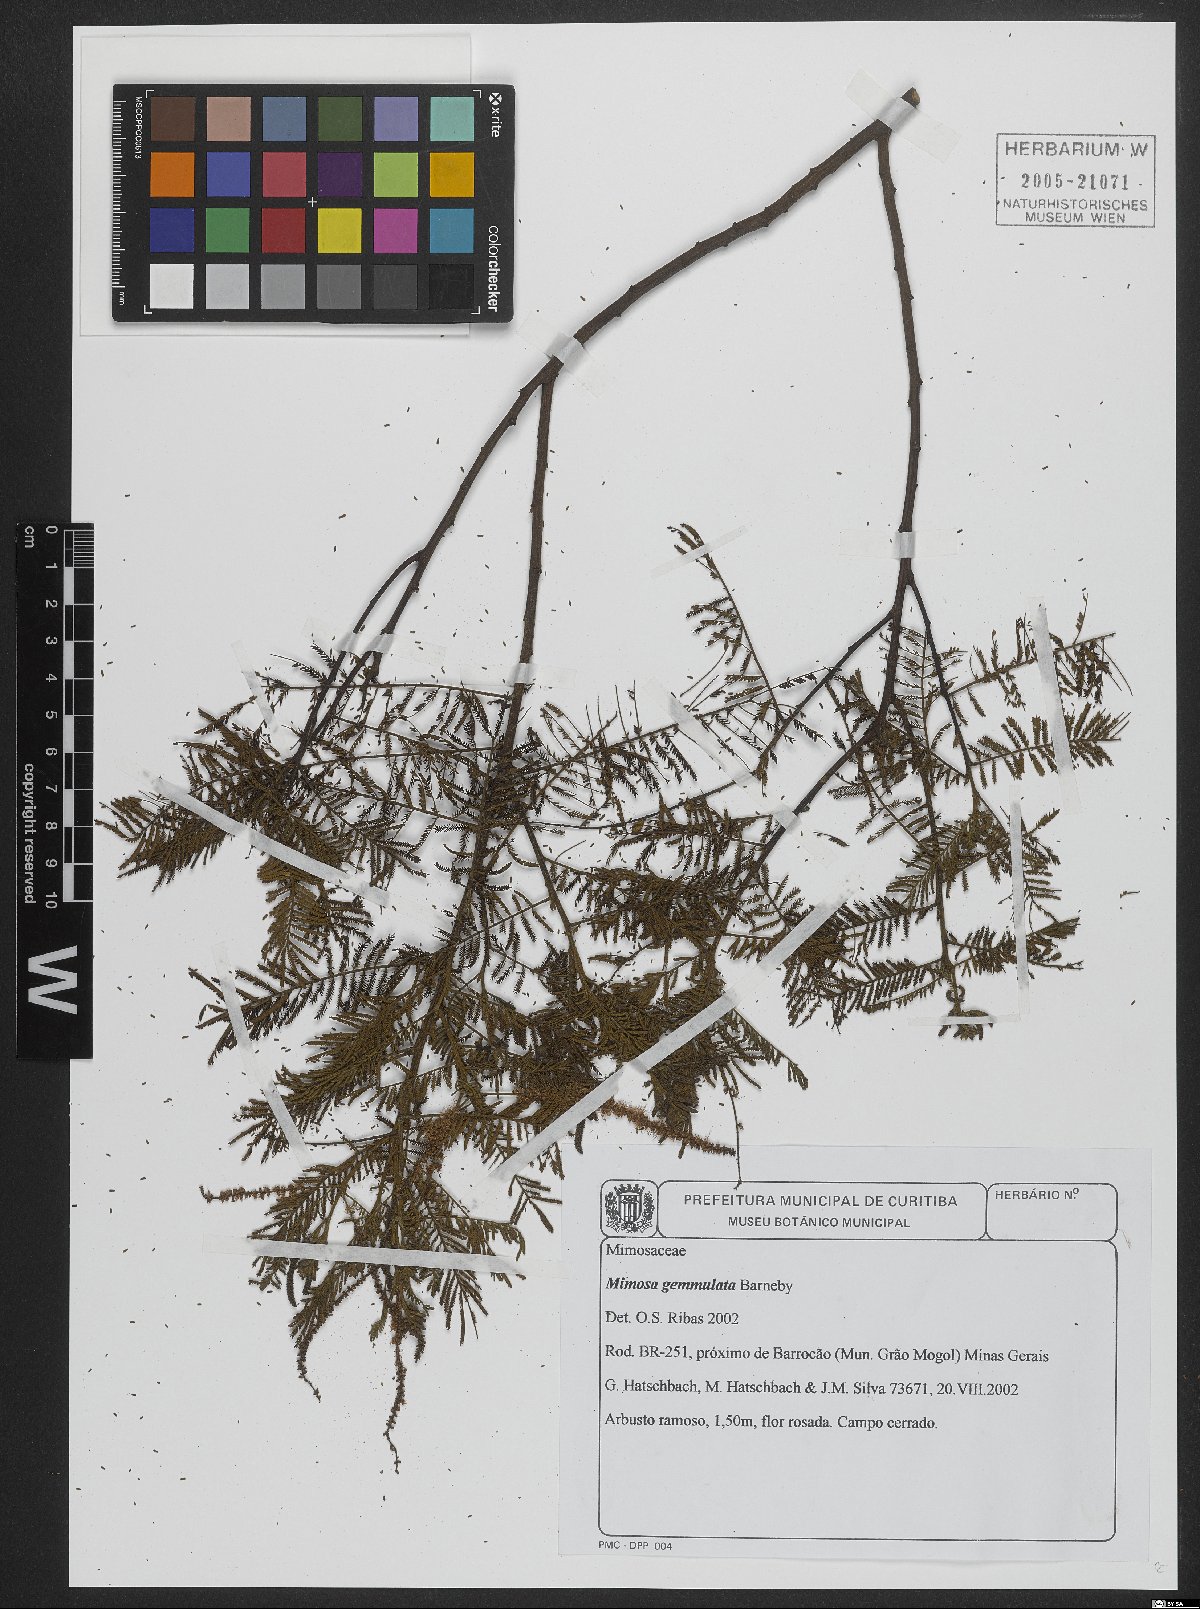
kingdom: Plantae
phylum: Tracheophyta
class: Magnoliopsida
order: Fabales
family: Fabaceae
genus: Mimosa
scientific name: Mimosa gemmulata
